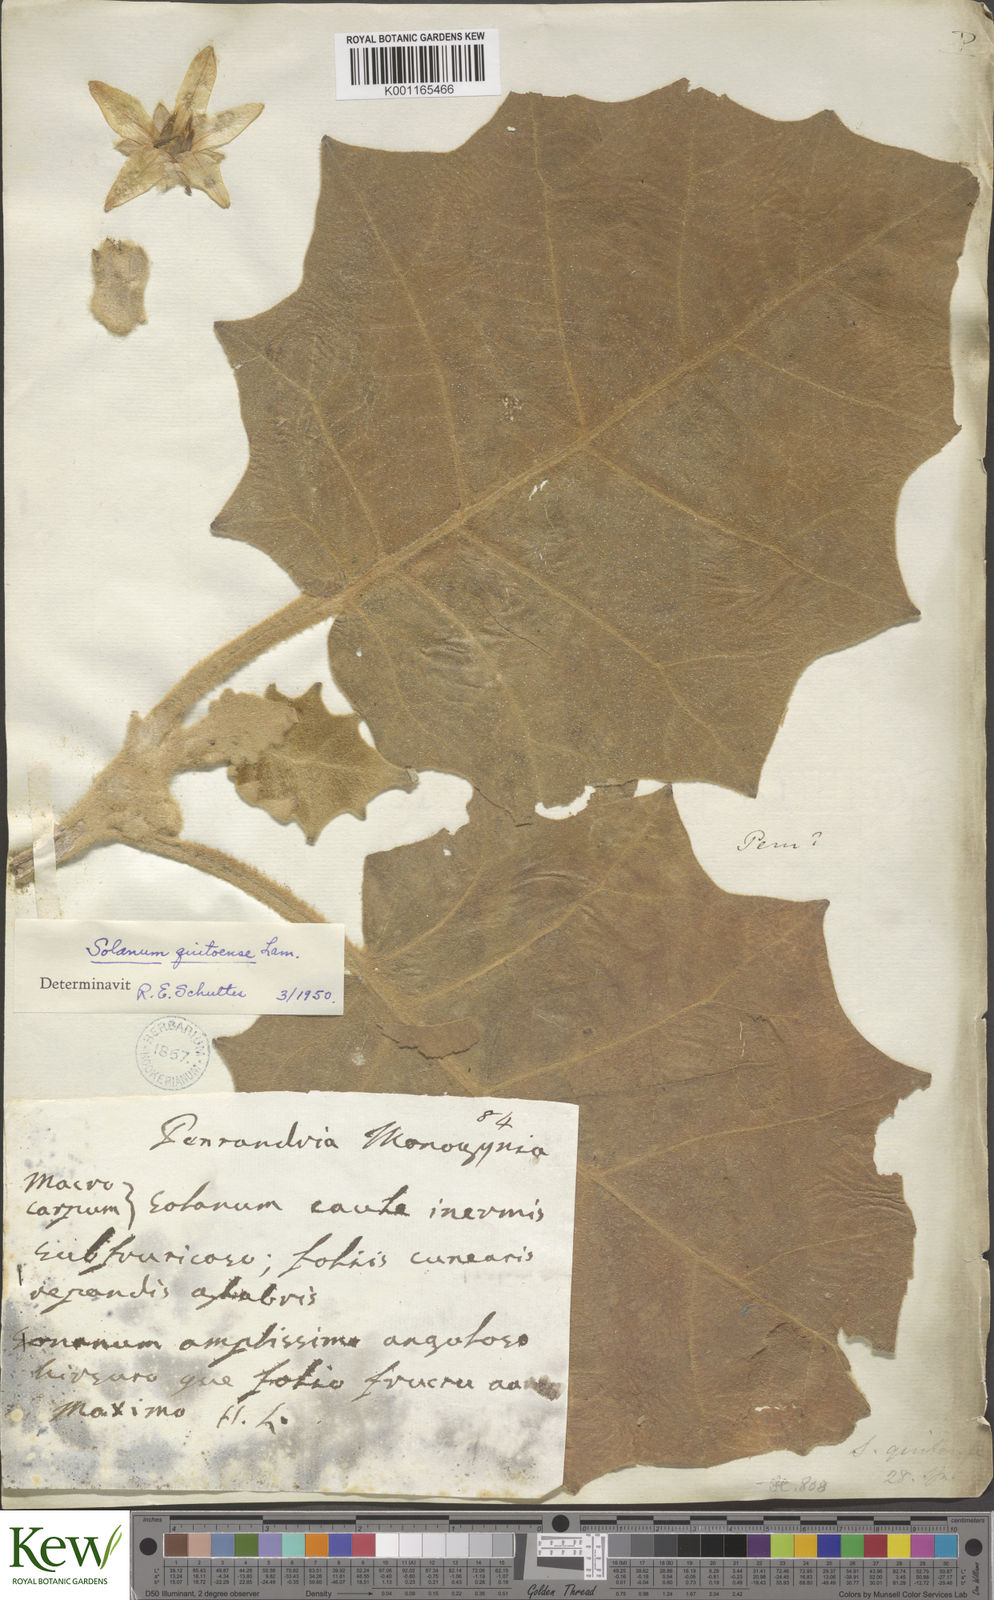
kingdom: Plantae
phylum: Tracheophyta
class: Magnoliopsida
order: Solanales
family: Solanaceae
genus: Solanum
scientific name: Solanum quitoense
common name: Quito-orange
